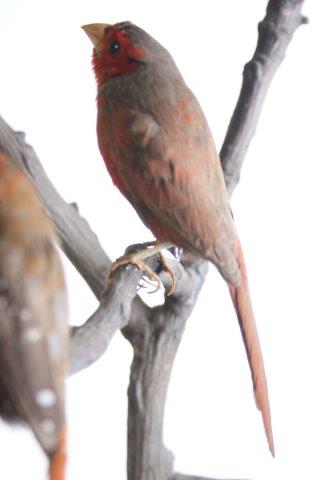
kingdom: Animalia
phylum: Chordata
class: Aves
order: Passeriformes
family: Estrildidae
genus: Neochmia
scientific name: Neochmia phaeton
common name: Crimson finch
